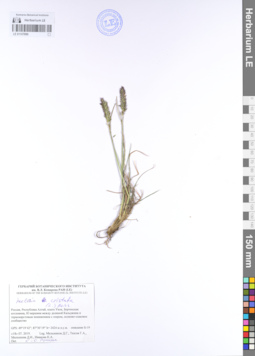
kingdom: Plantae
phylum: Tracheophyta
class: Liliopsida
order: Poales
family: Poaceae
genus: Koeleria
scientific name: Koeleria pyramidata
